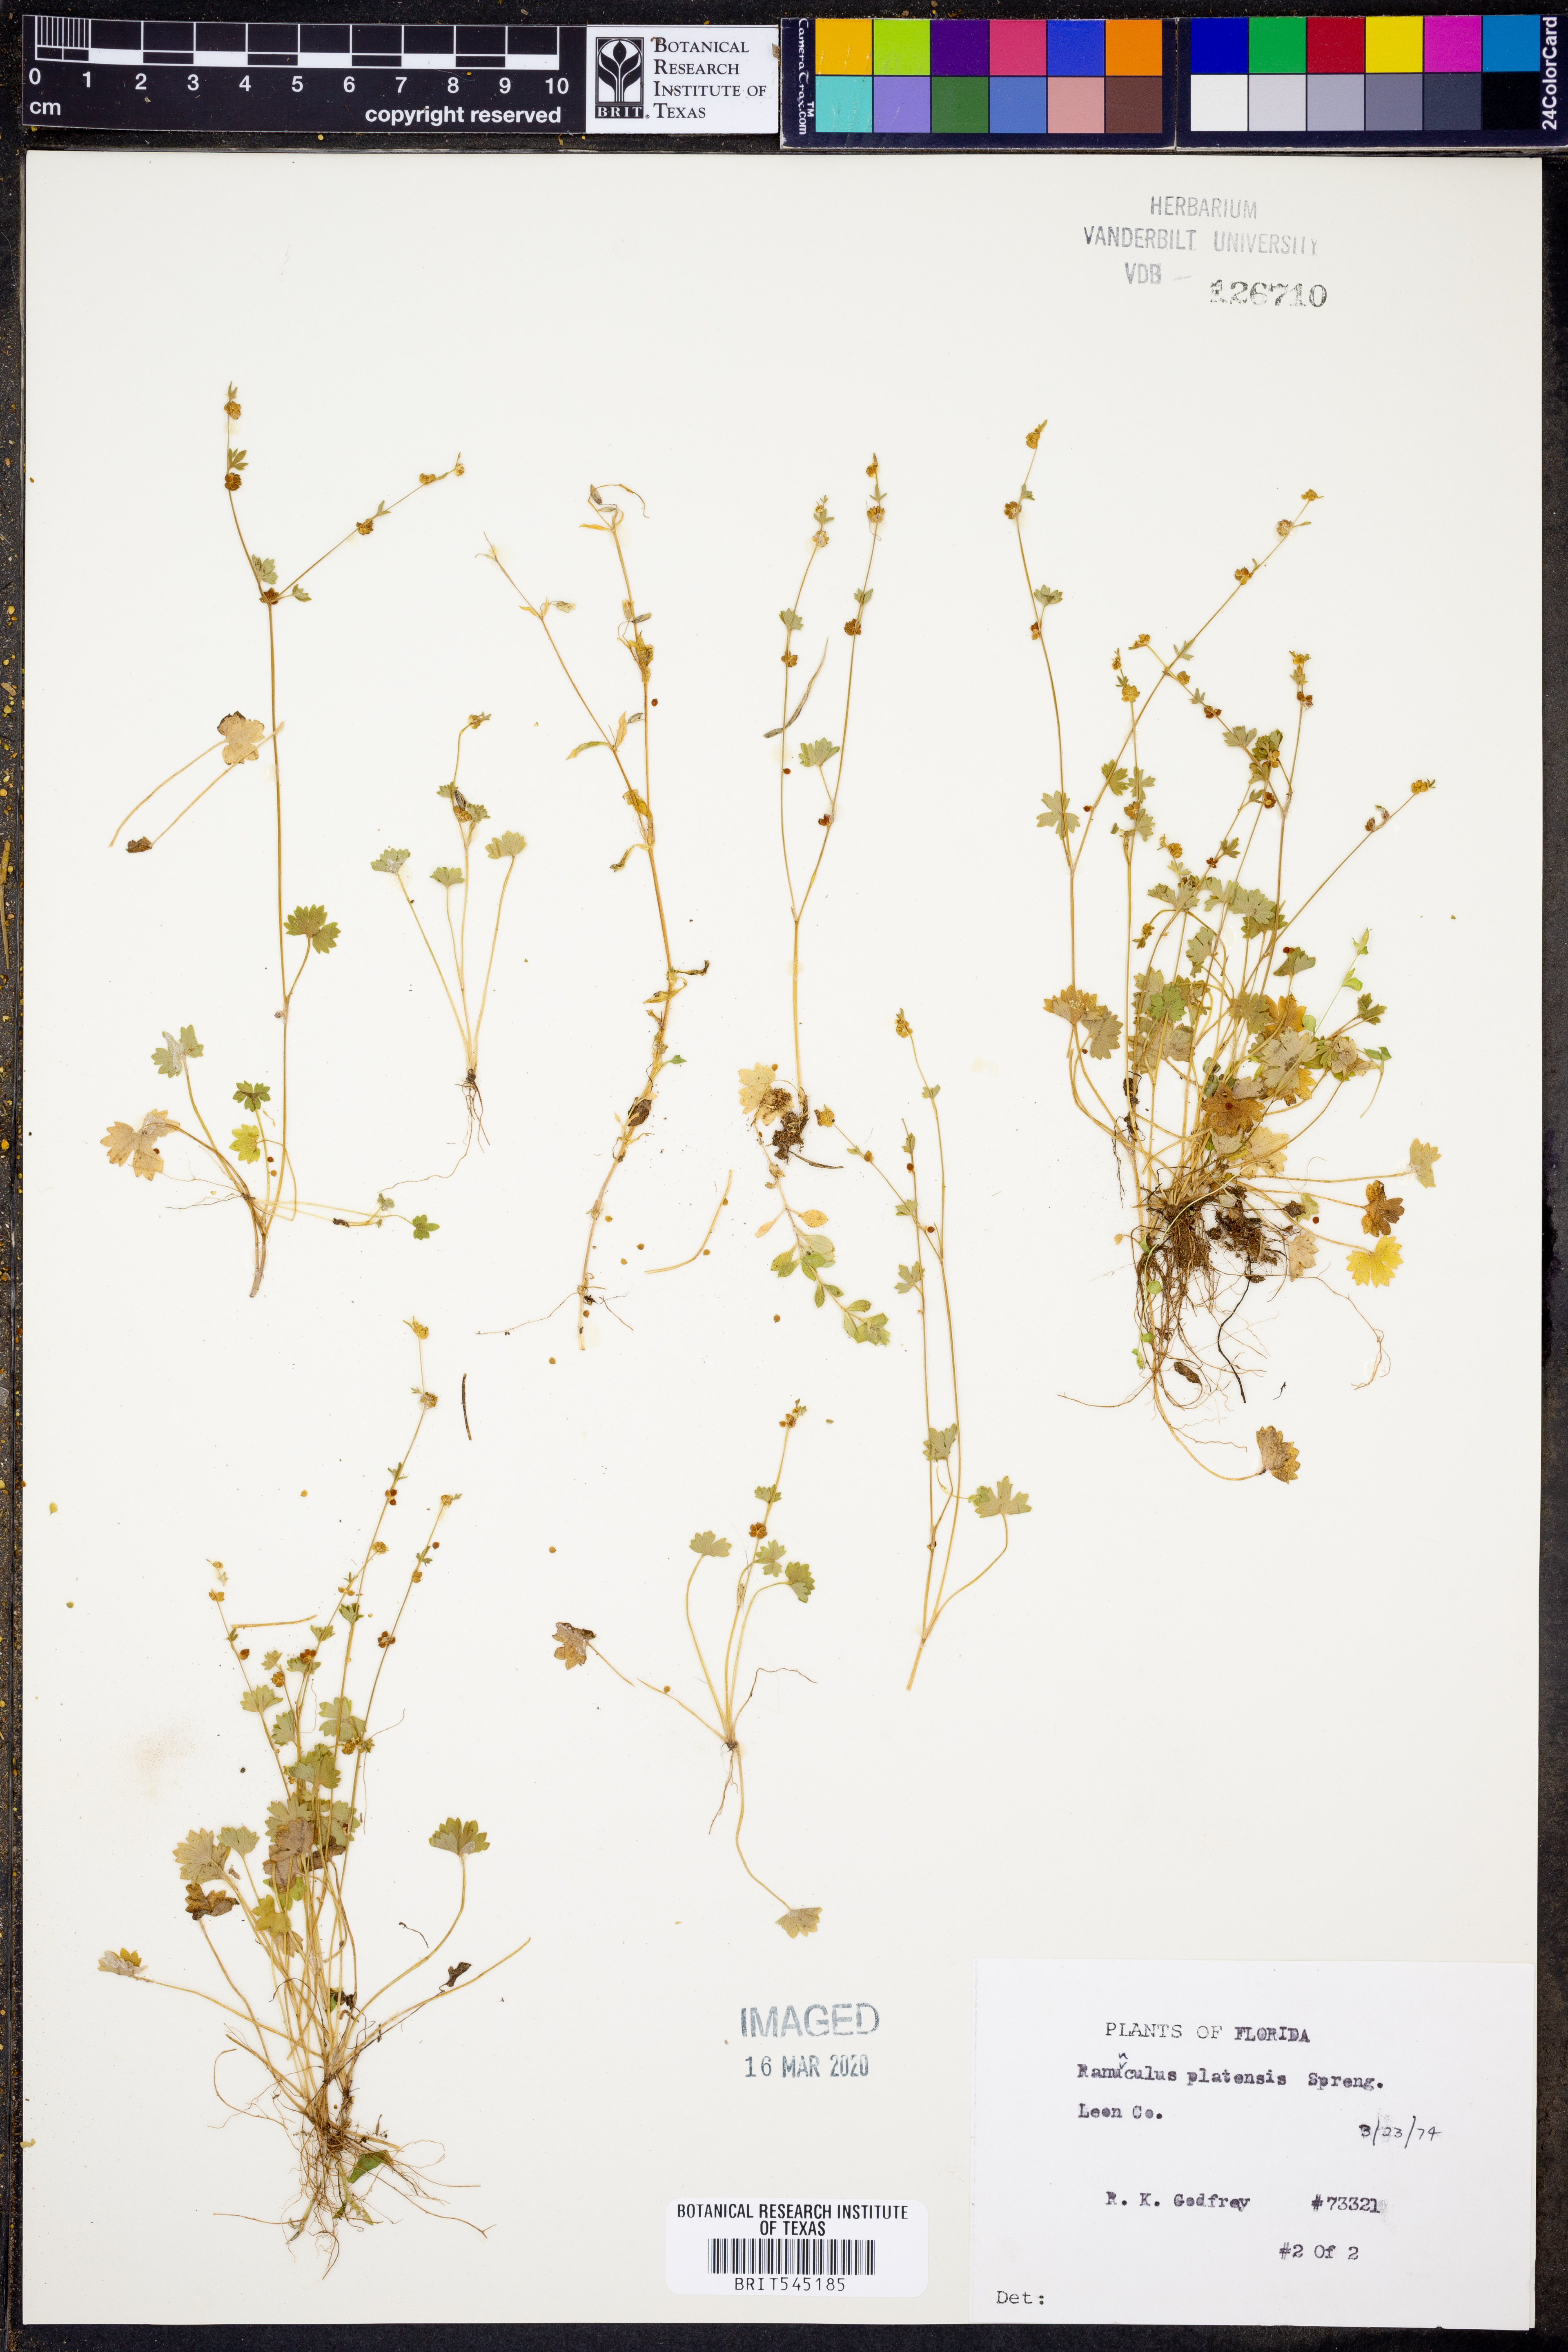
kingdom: Plantae
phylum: Tracheophyta
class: Magnoliopsida
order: Ranunculales
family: Ranunculaceae
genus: Ranunculus
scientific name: Ranunculus platensis
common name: Prairie buttercup
